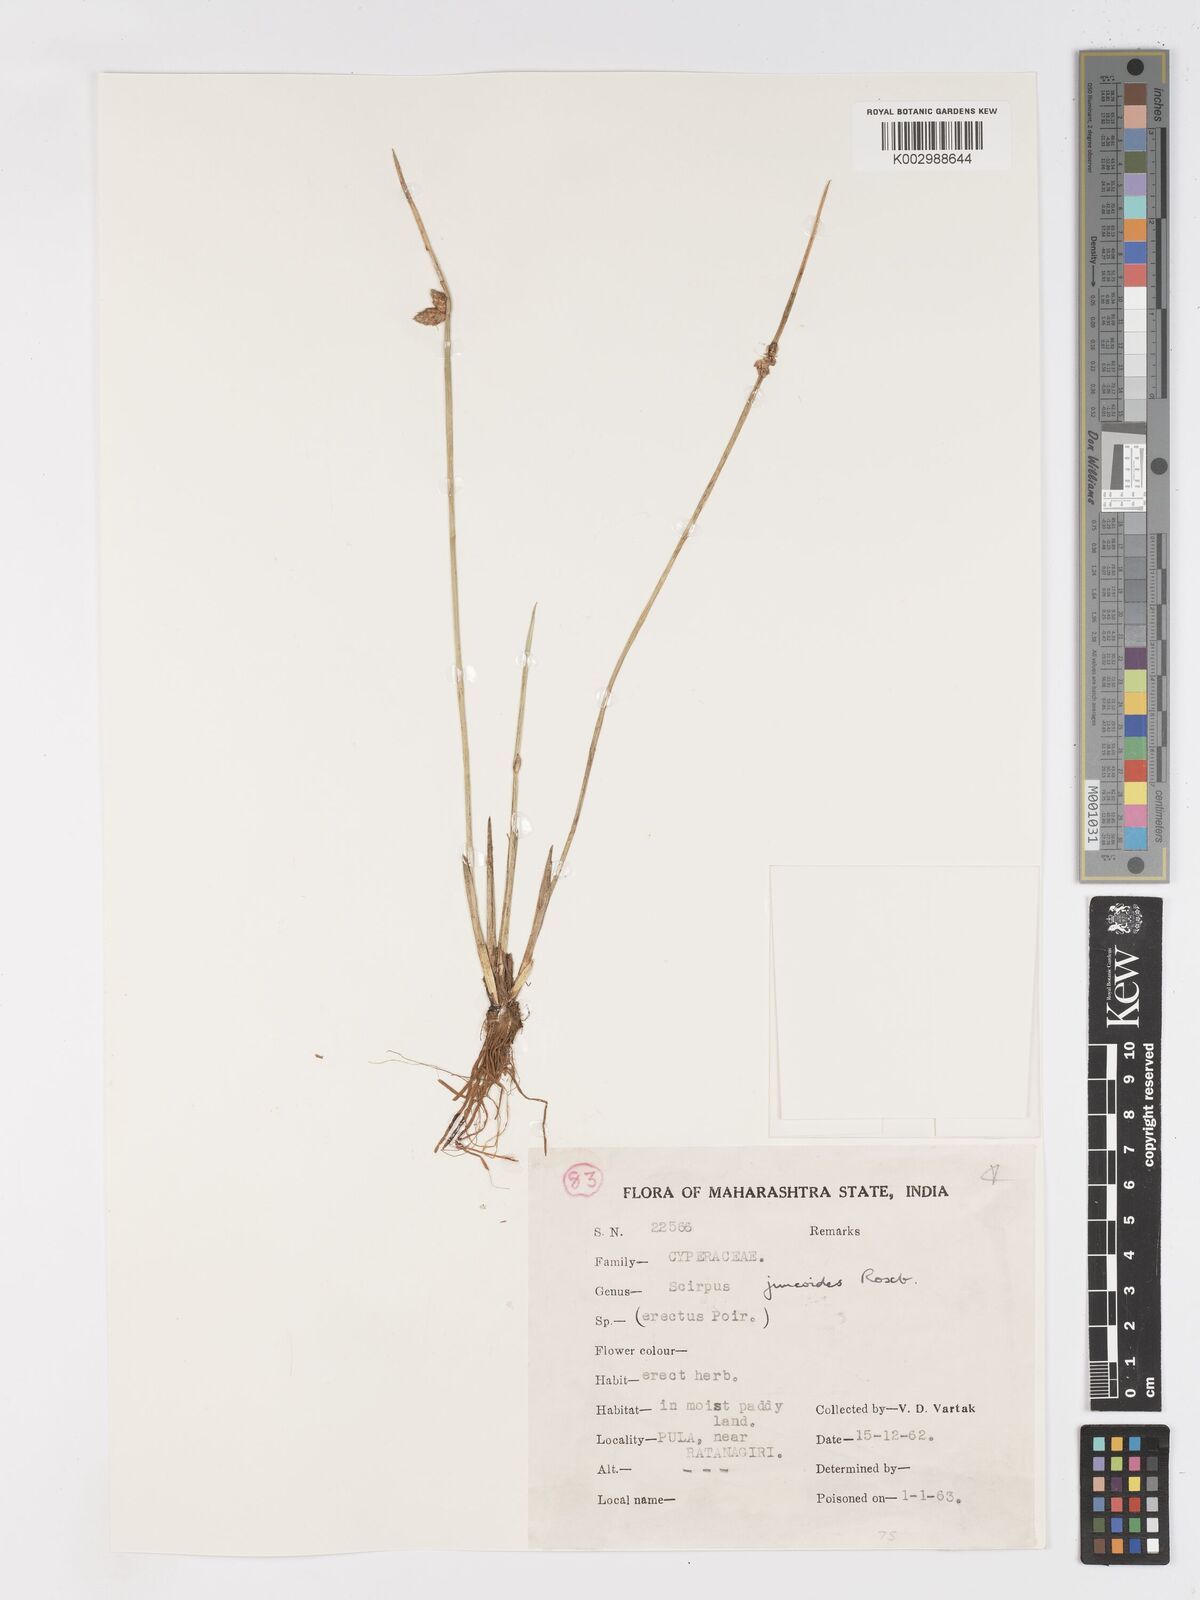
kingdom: Plantae
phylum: Tracheophyta
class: Liliopsida
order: Poales
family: Cyperaceae
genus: Schoenoplectiella
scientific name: Schoenoplectiella juncoides
